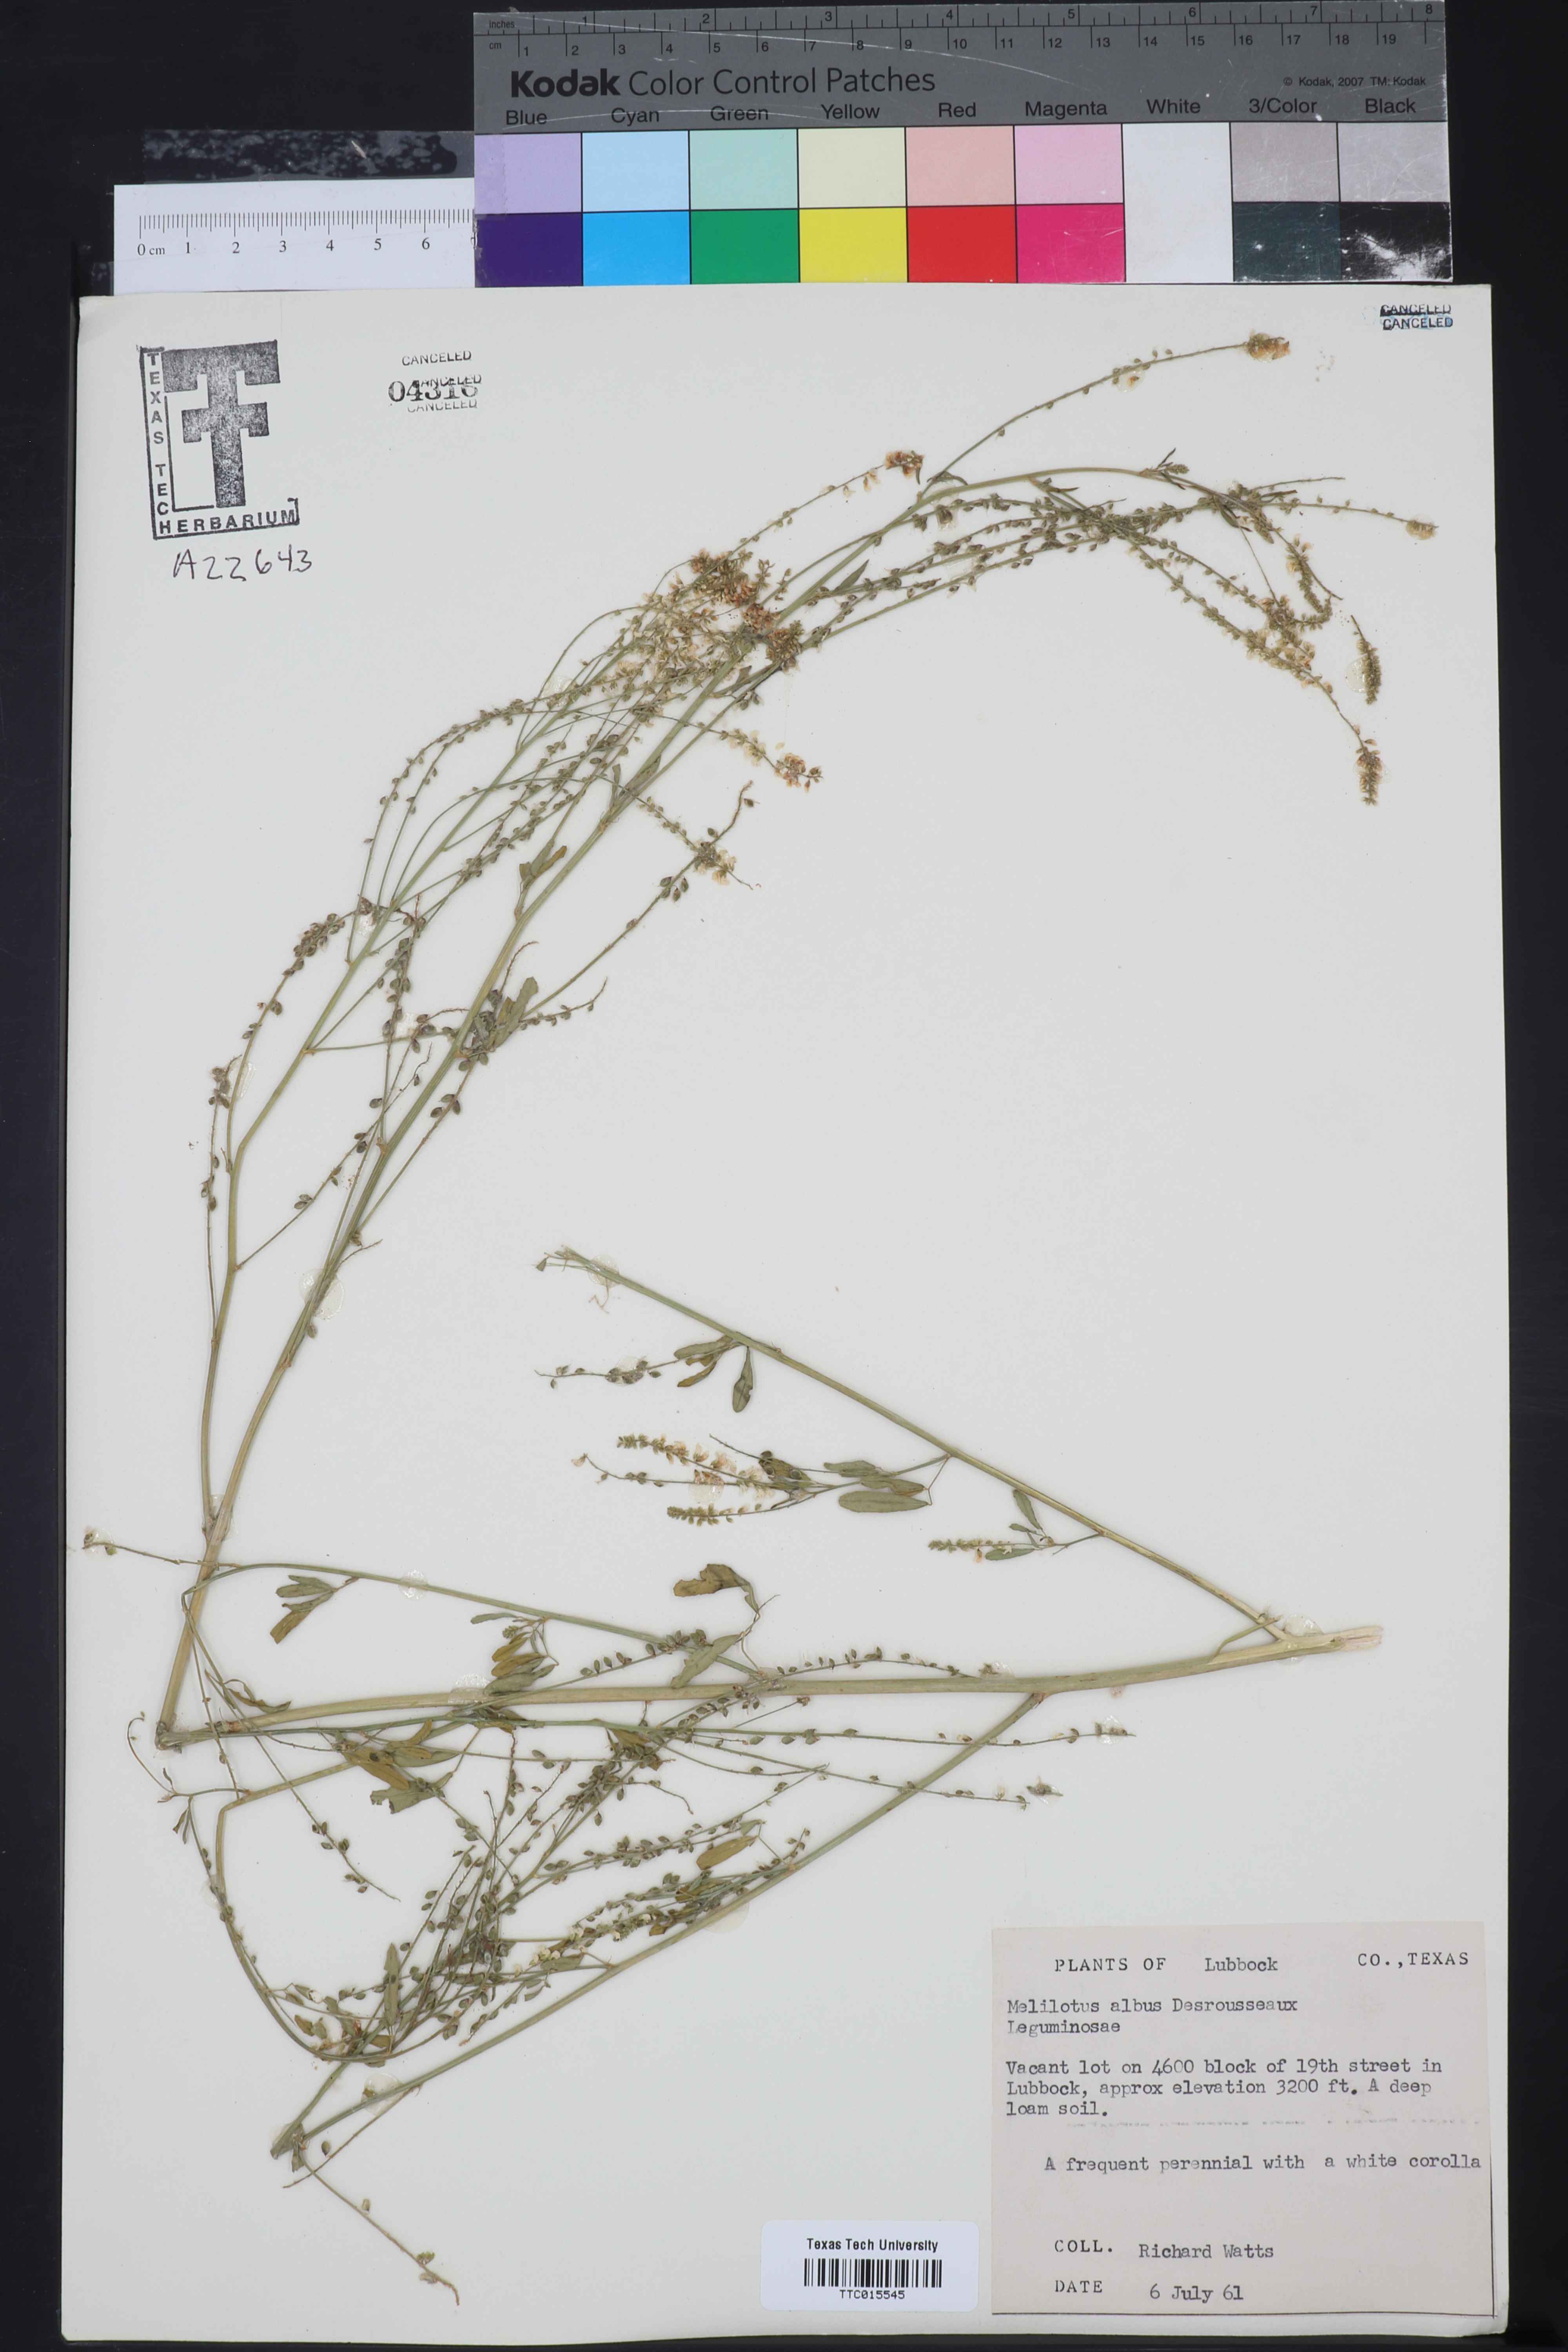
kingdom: Plantae
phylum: Tracheophyta
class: Magnoliopsida
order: Fabales
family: Fabaceae
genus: Melilotus
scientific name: Melilotus albus
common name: White melilot
